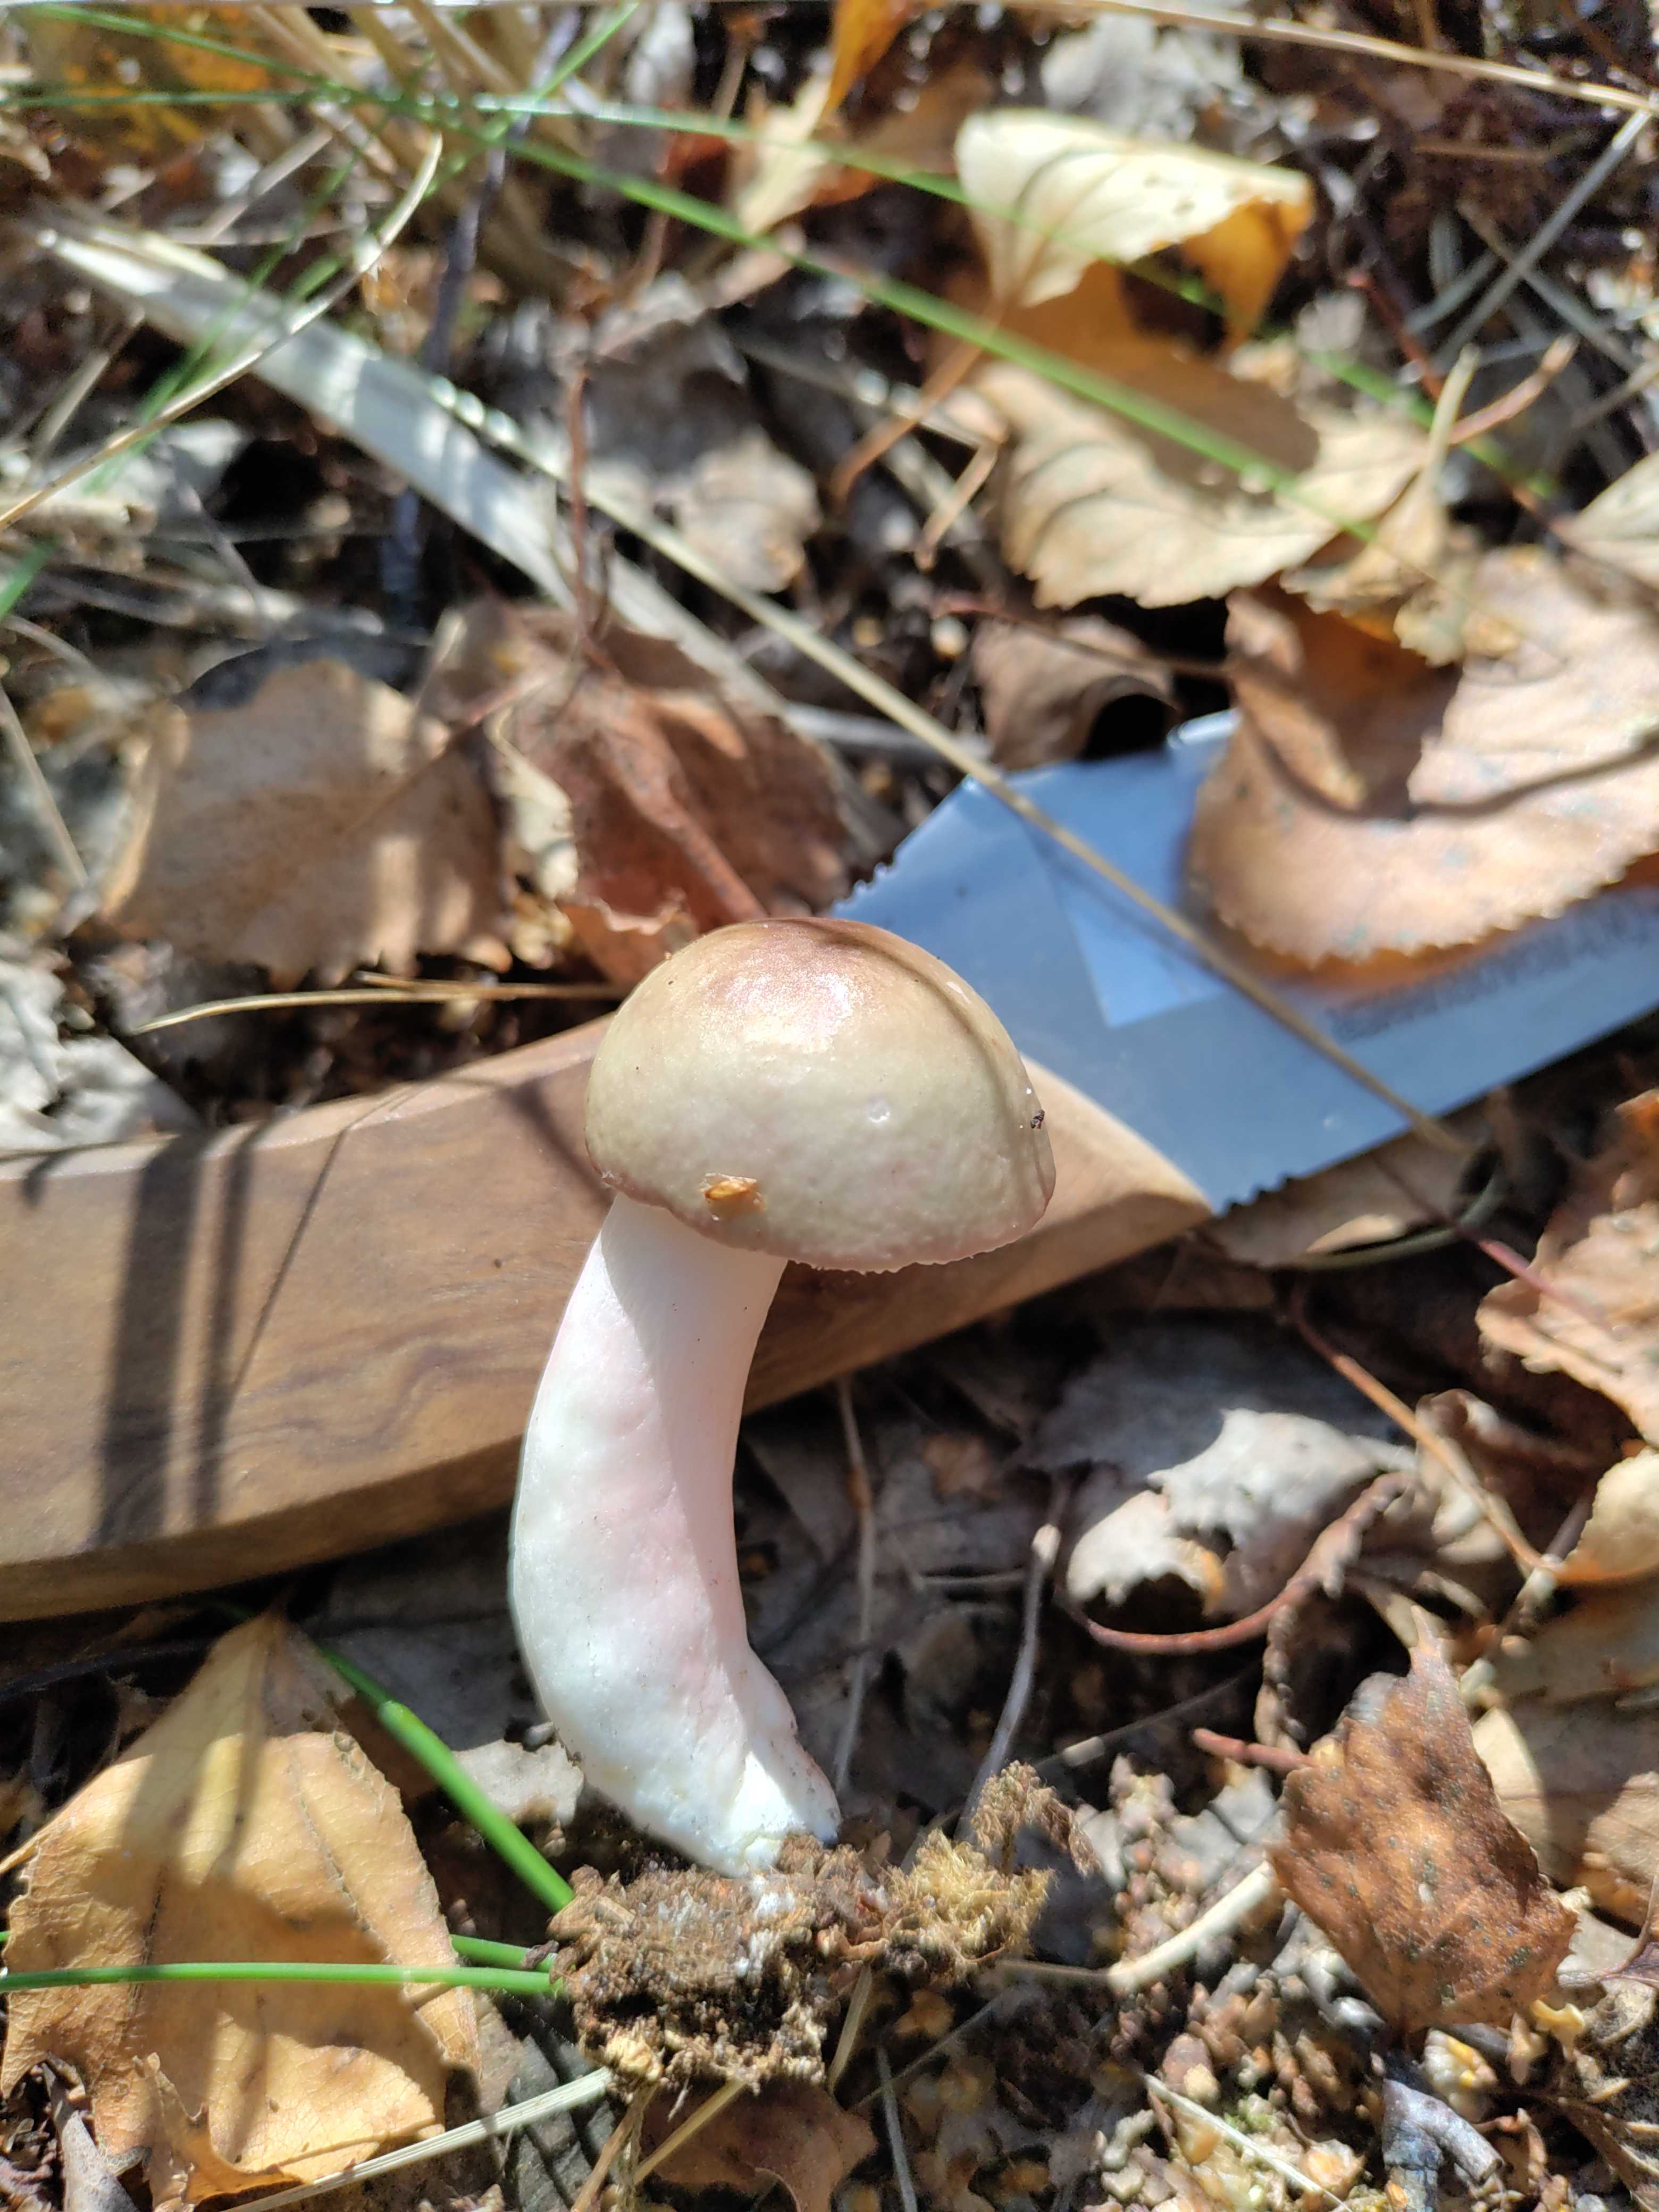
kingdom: Fungi
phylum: Basidiomycota
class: Agaricomycetes
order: Russulales
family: Russulaceae
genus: Russula
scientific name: Russula
